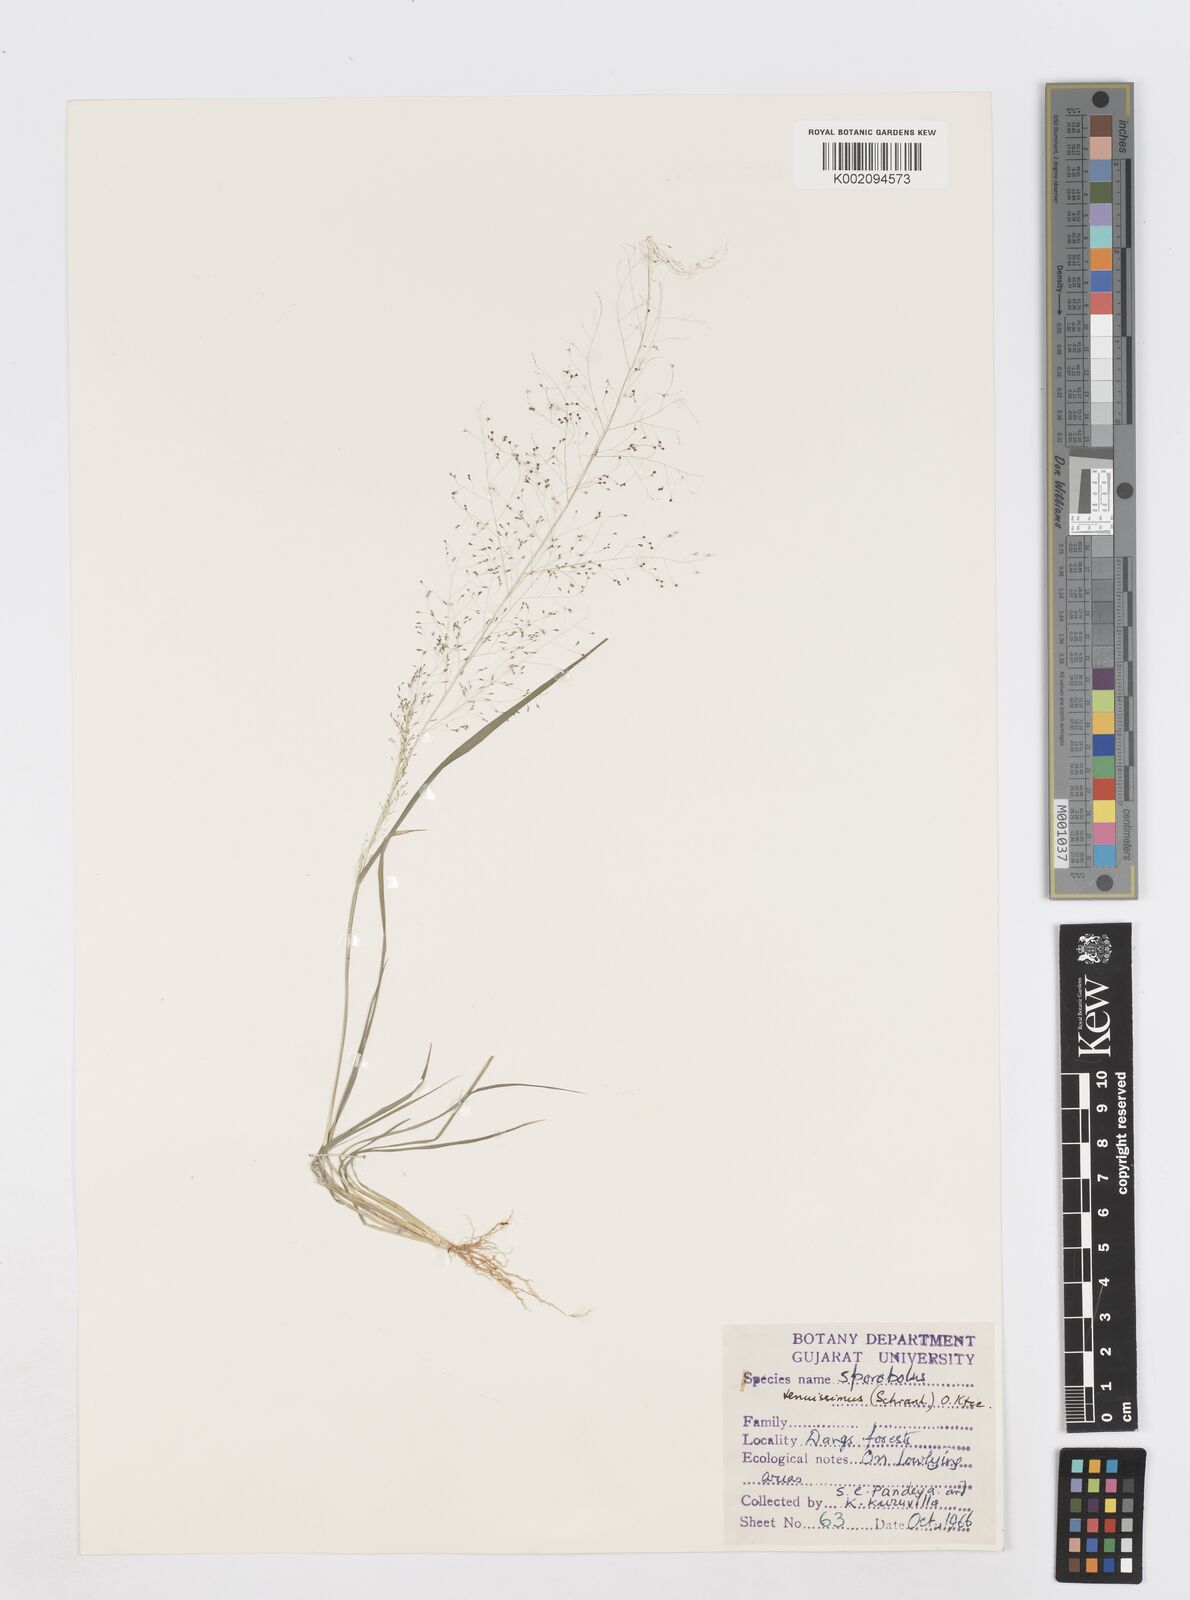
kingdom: Plantae
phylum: Tracheophyta
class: Liliopsida
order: Poales
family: Poaceae
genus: Sporobolus
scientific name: Sporobolus tenuissimus
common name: Tropical dropseed
